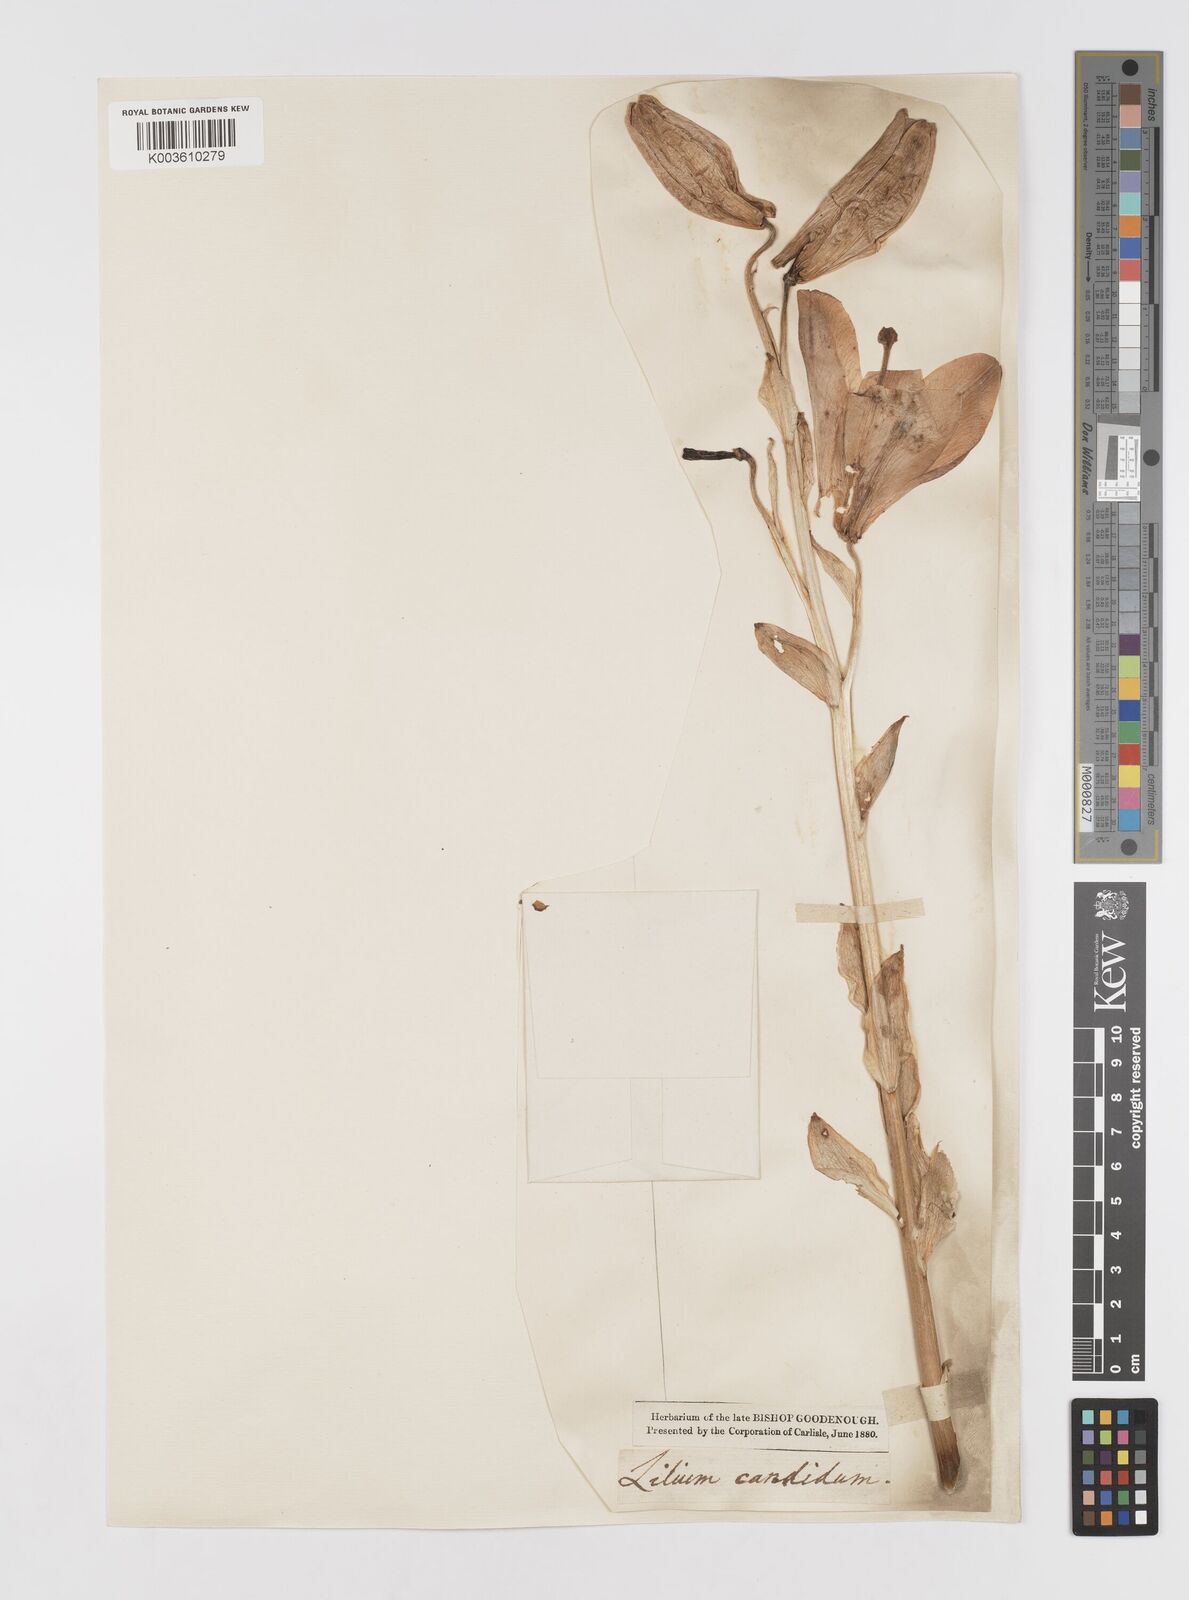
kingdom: Plantae
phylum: Tracheophyta
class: Liliopsida
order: Liliales
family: Liliaceae
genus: Lilium
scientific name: Lilium candidum
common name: Madonna lily
